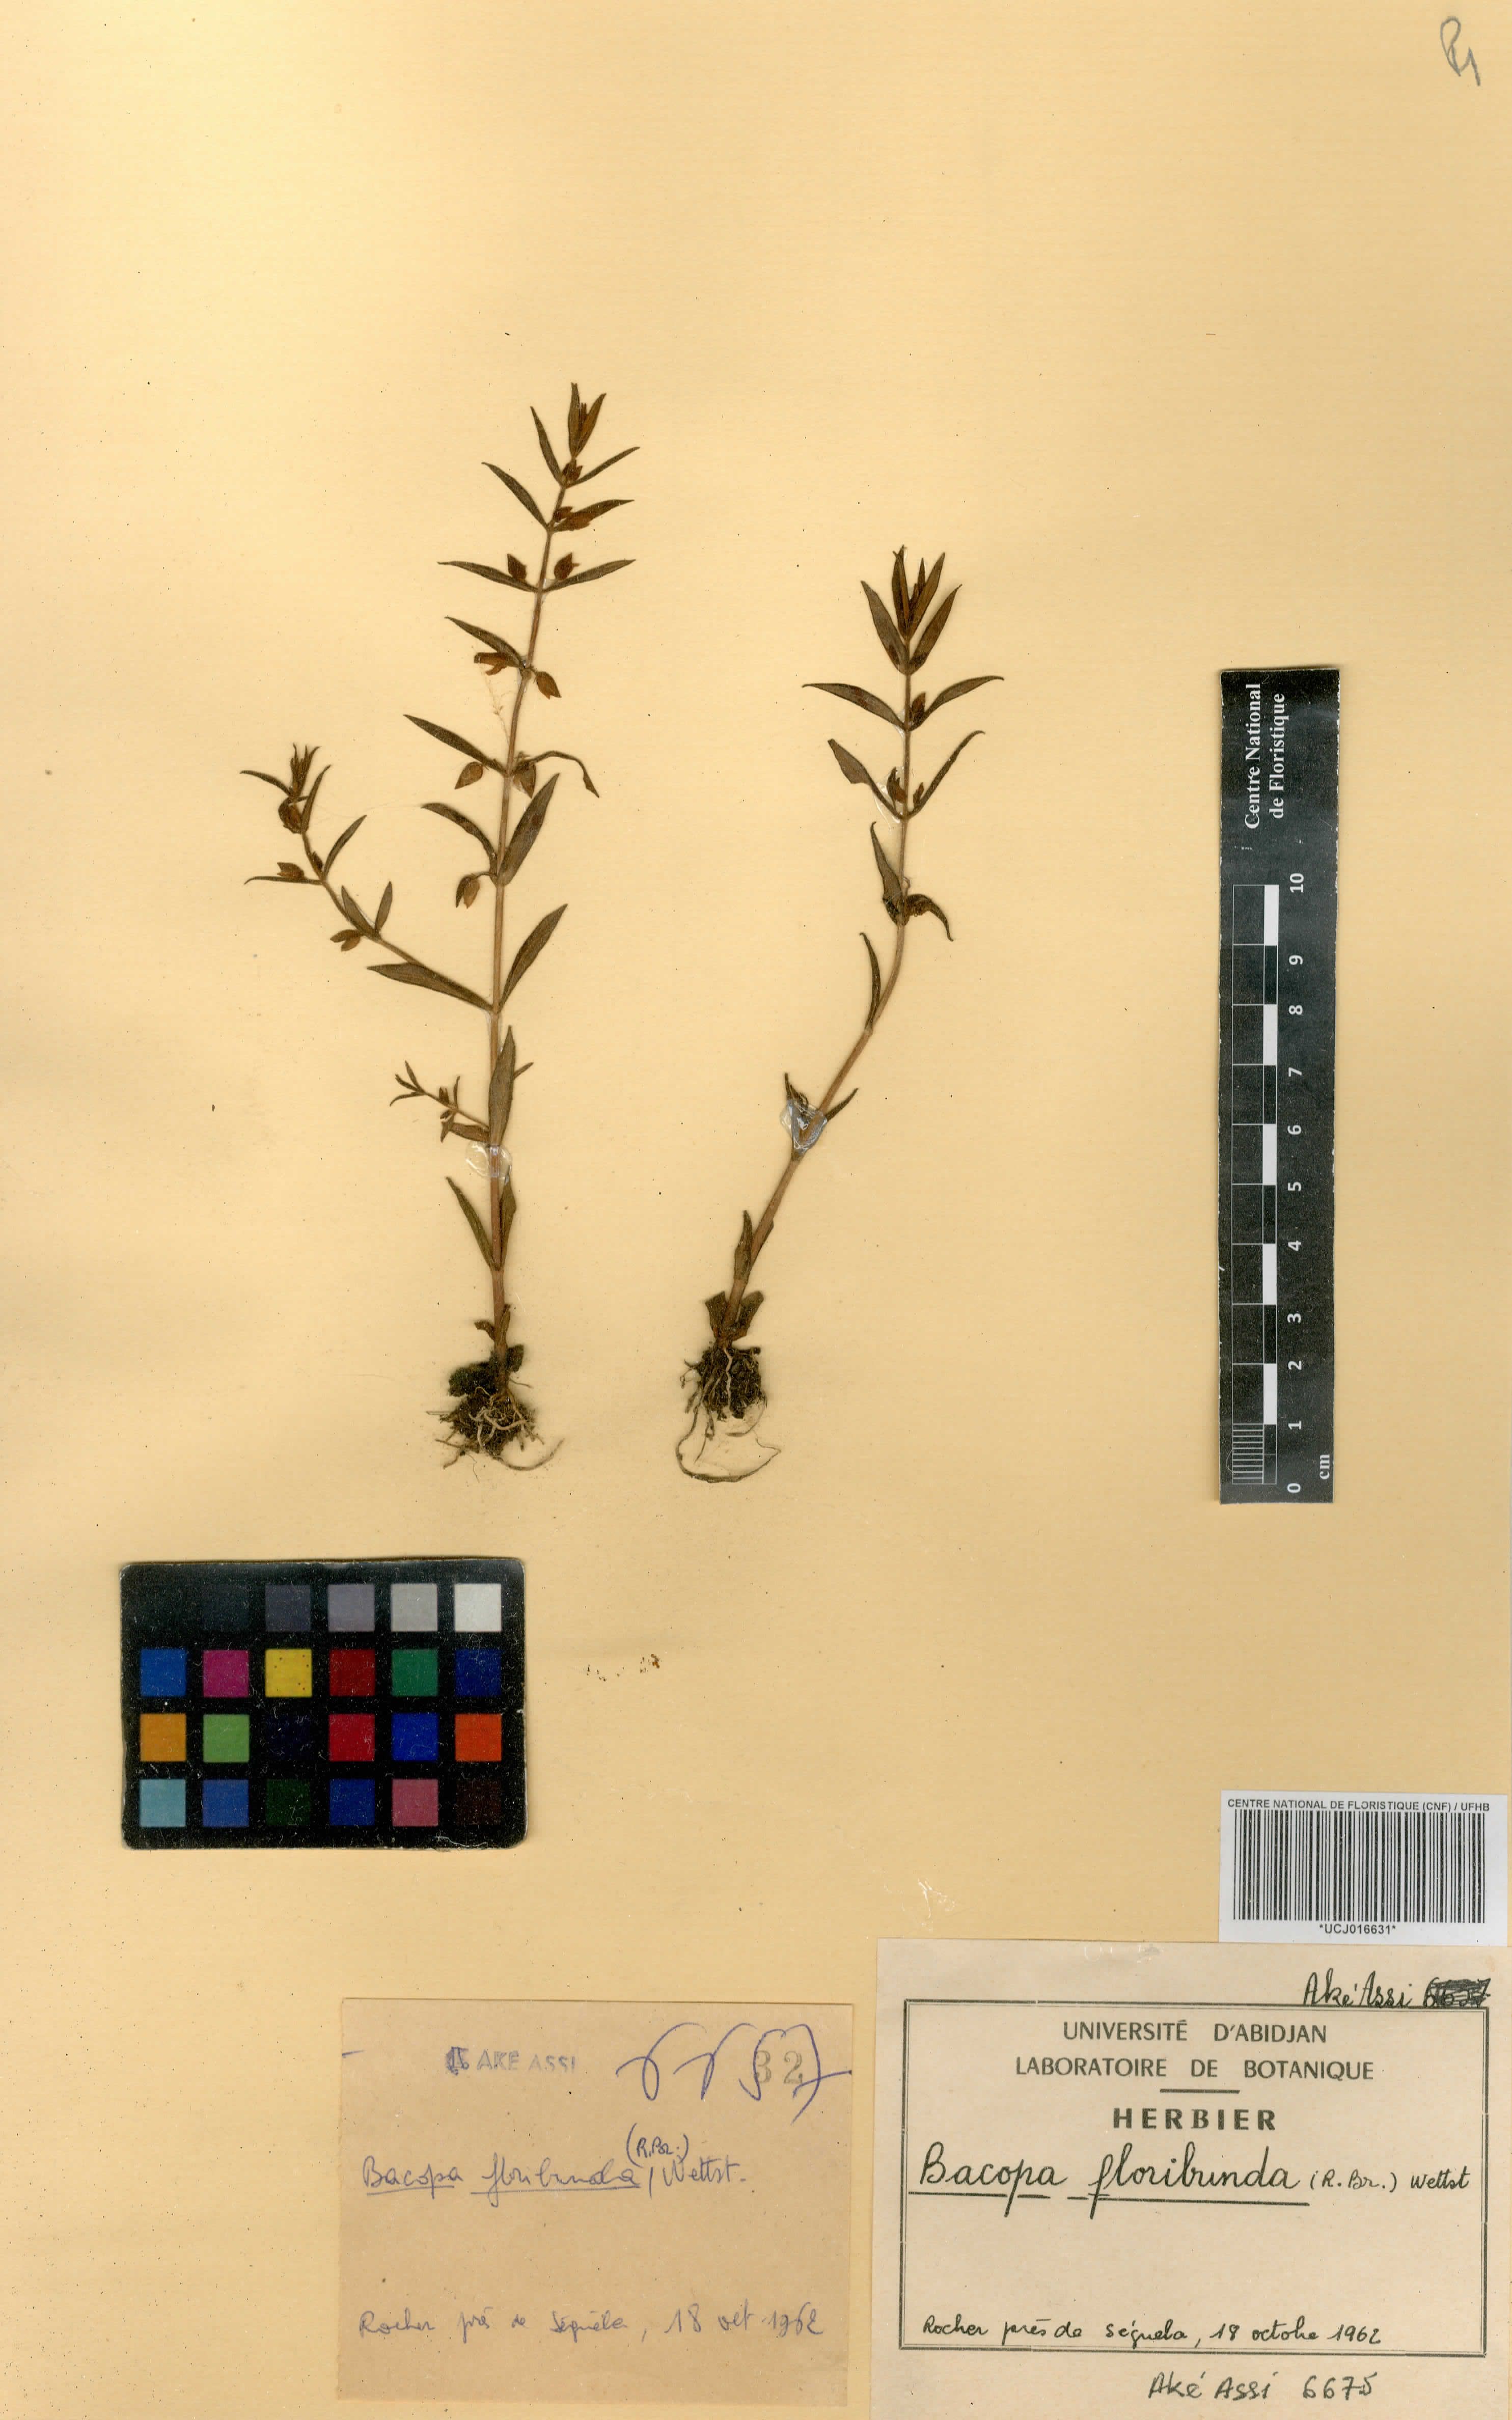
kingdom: Plantae
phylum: Tracheophyta
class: Magnoliopsida
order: Lamiales
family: Plantaginaceae
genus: Bacopa
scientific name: Bacopa floribunda
